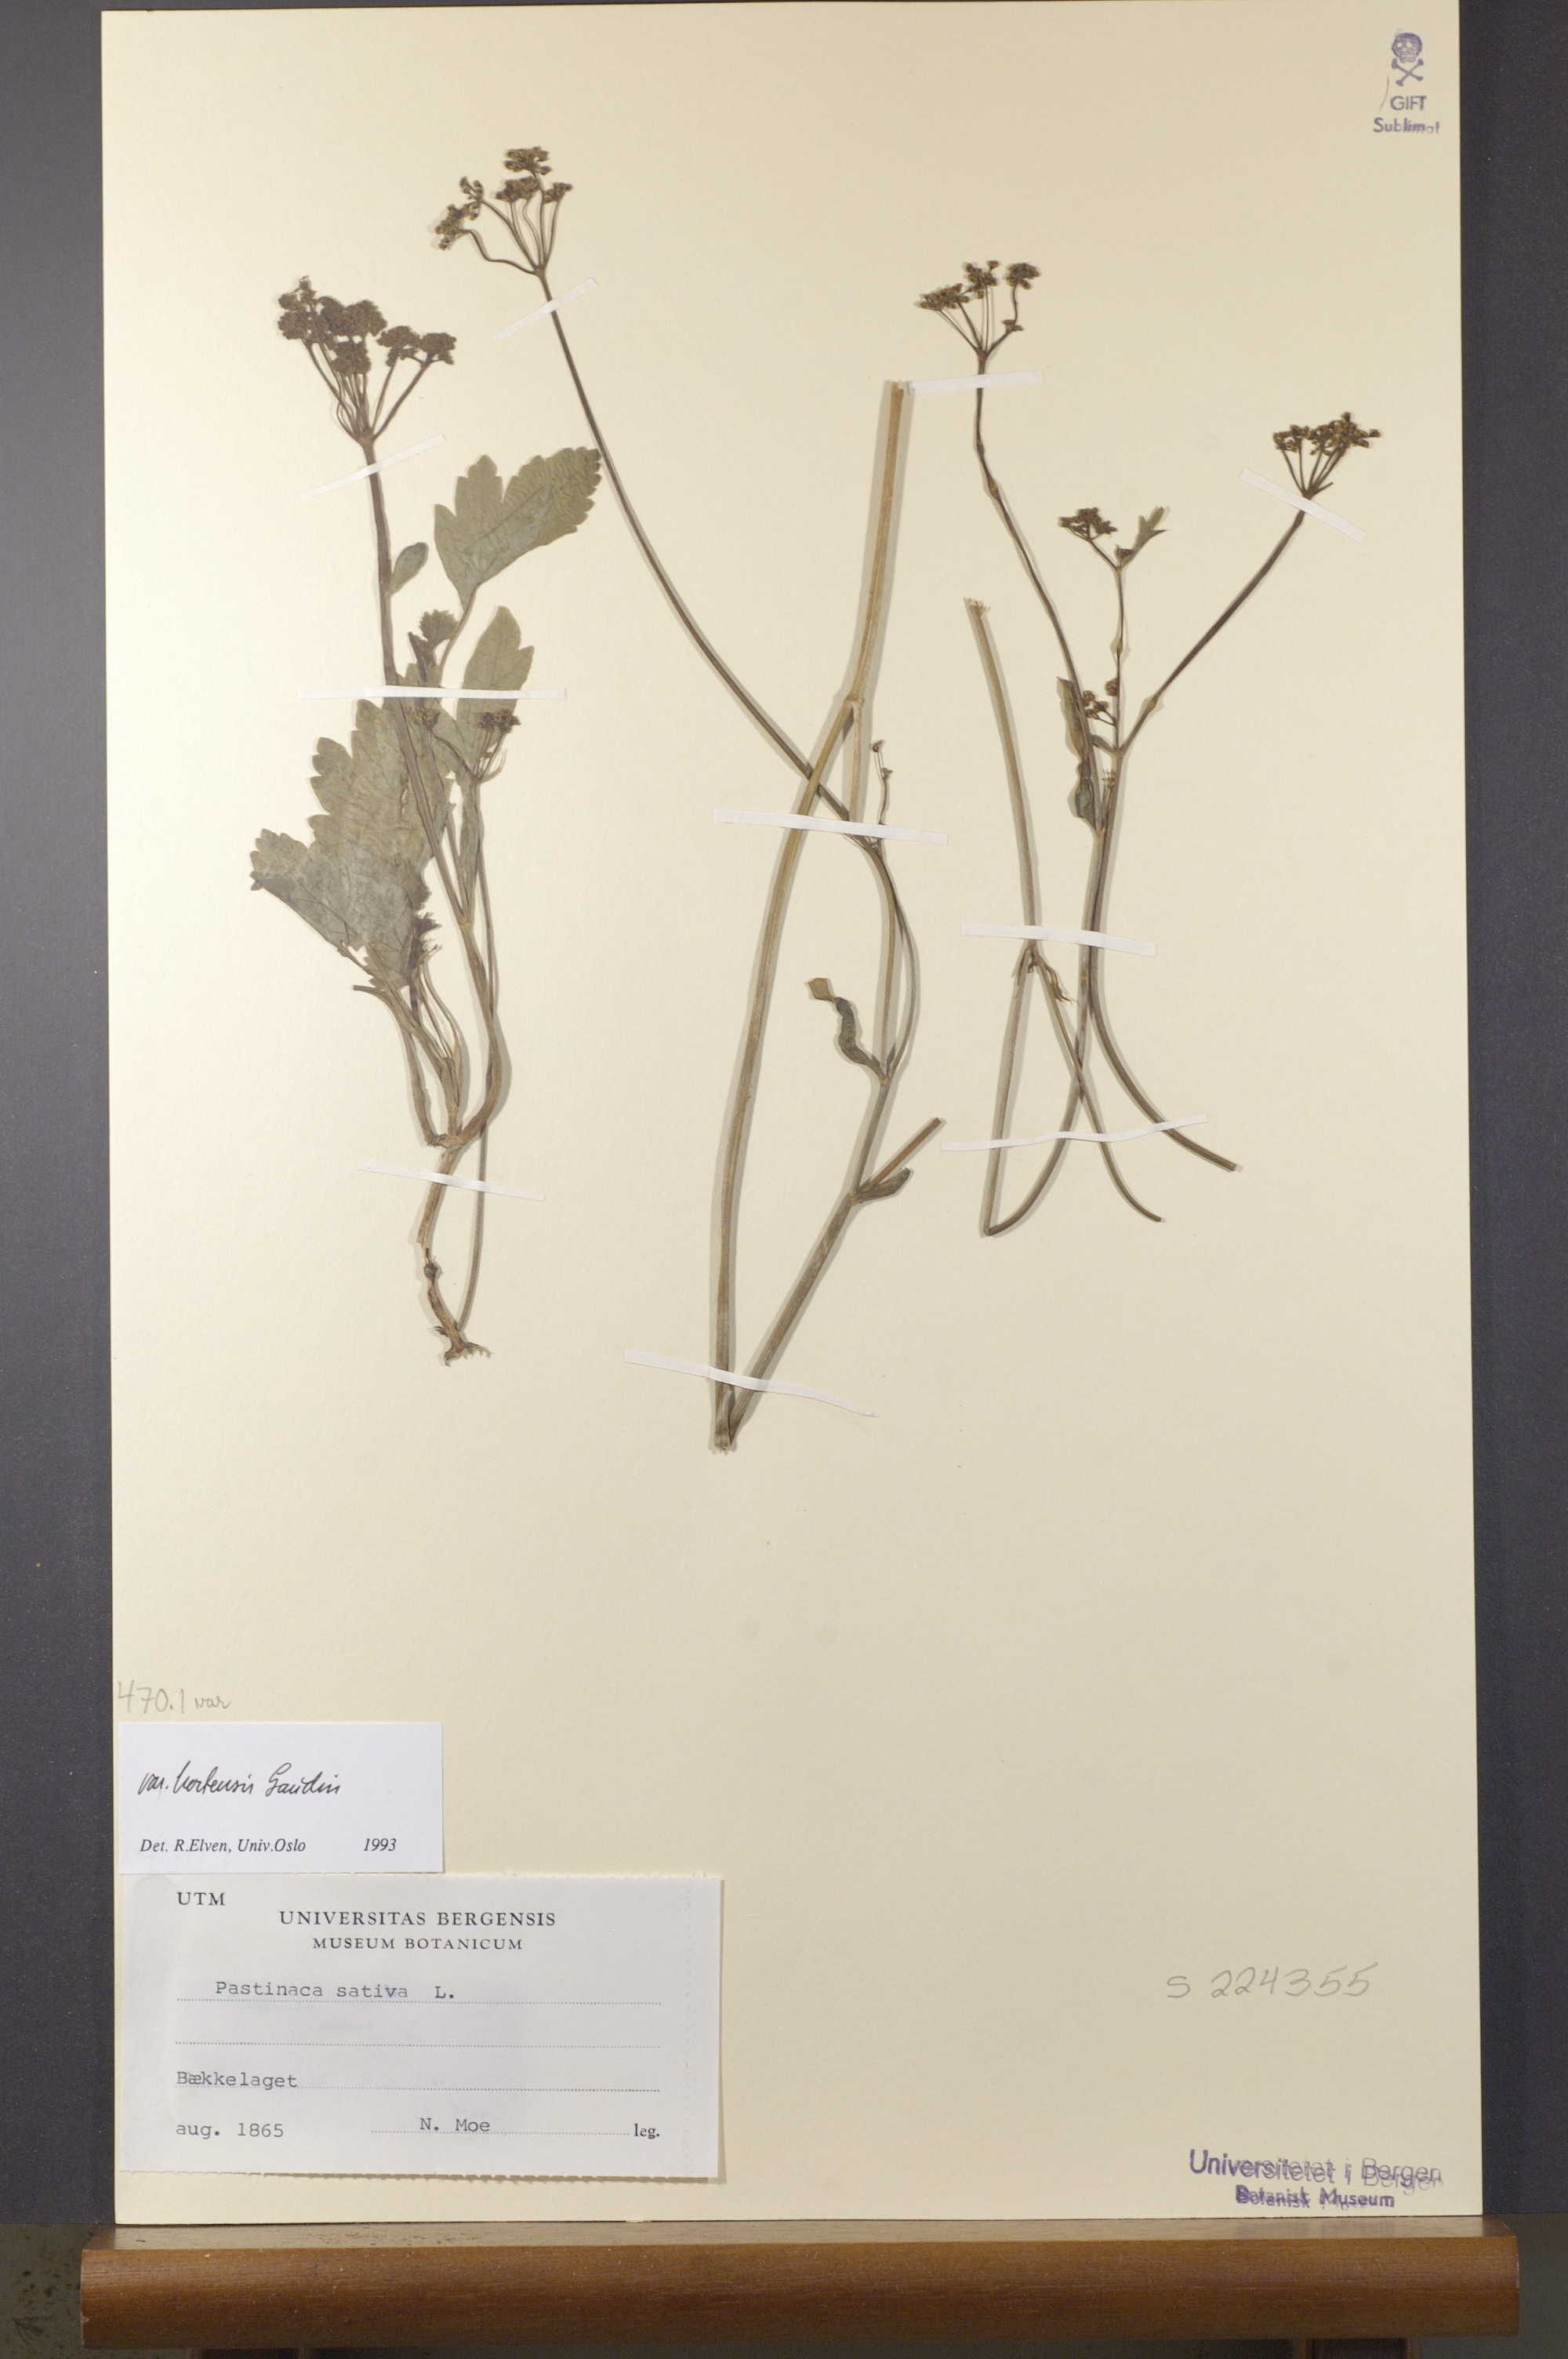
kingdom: Plantae
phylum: Tracheophyta
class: Magnoliopsida
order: Apiales
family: Apiaceae
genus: Pastinaca
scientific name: Pastinaca sativa
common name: Wild parsnip
